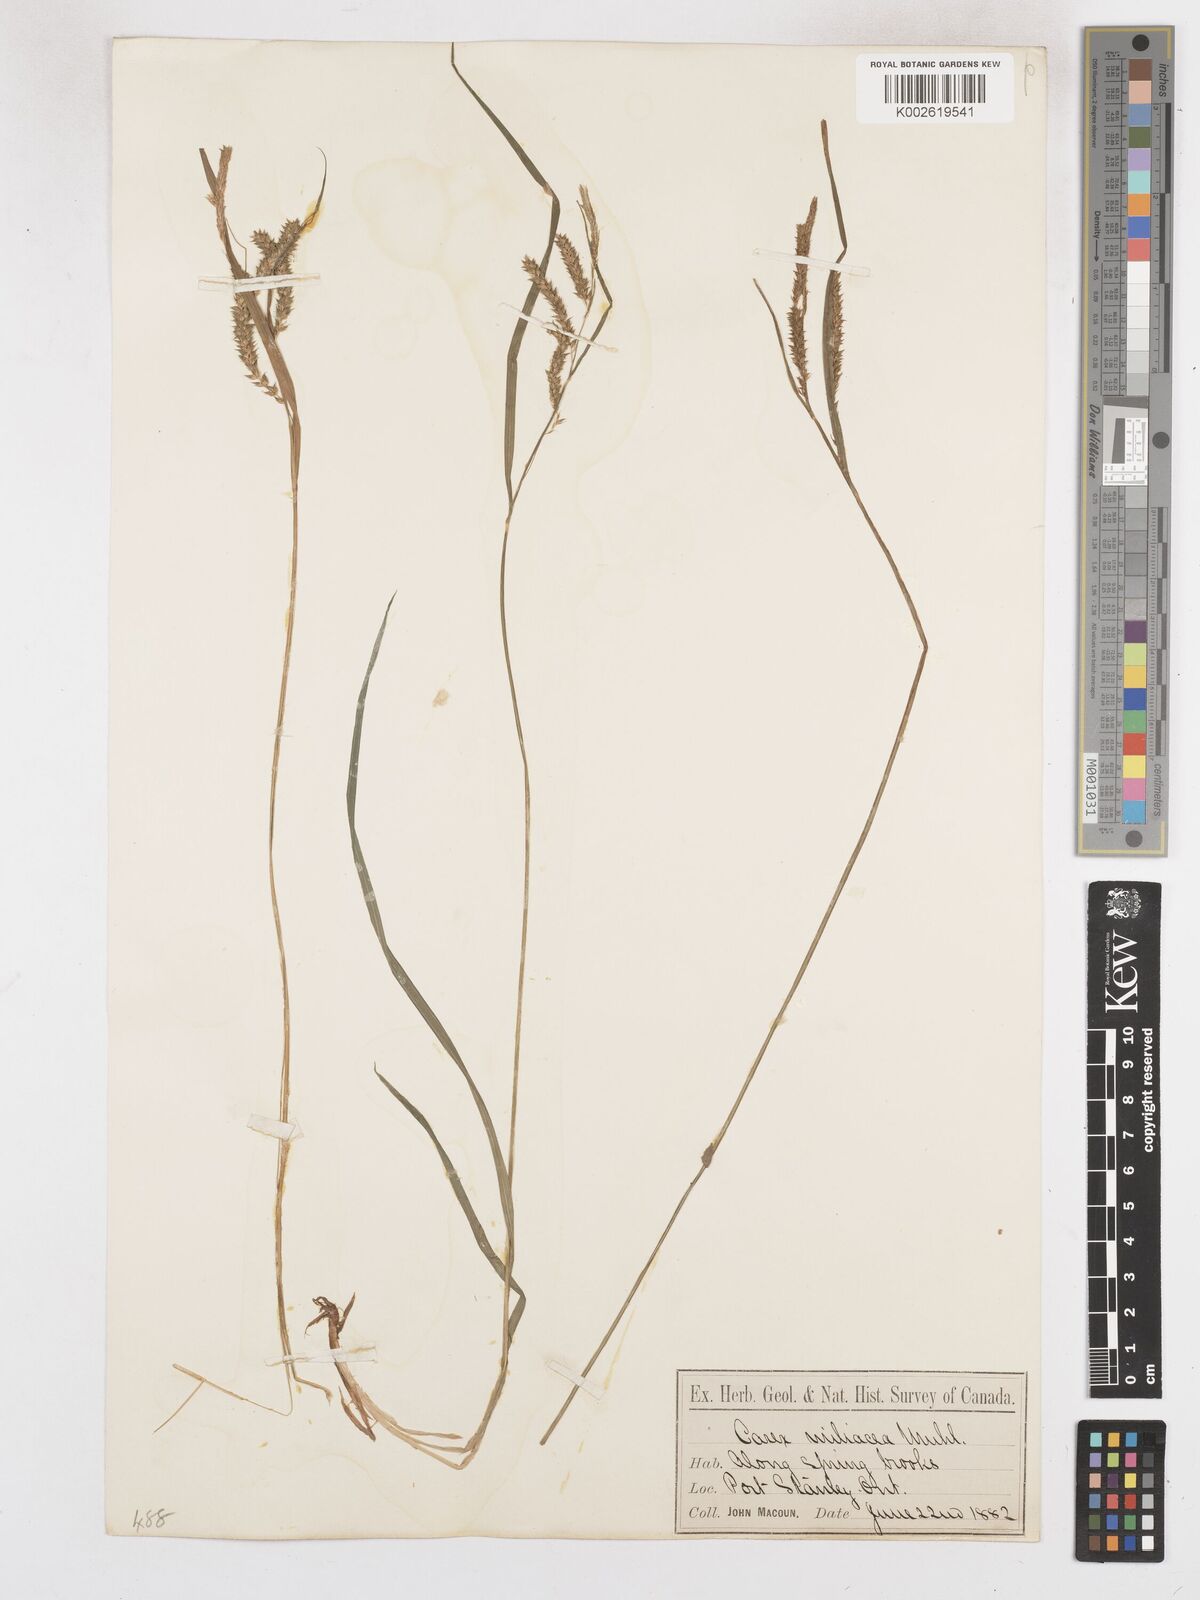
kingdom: Plantae
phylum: Tracheophyta
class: Liliopsida
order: Poales
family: Cyperaceae
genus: Carex
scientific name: Carex prasina
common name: Drooping sedge
